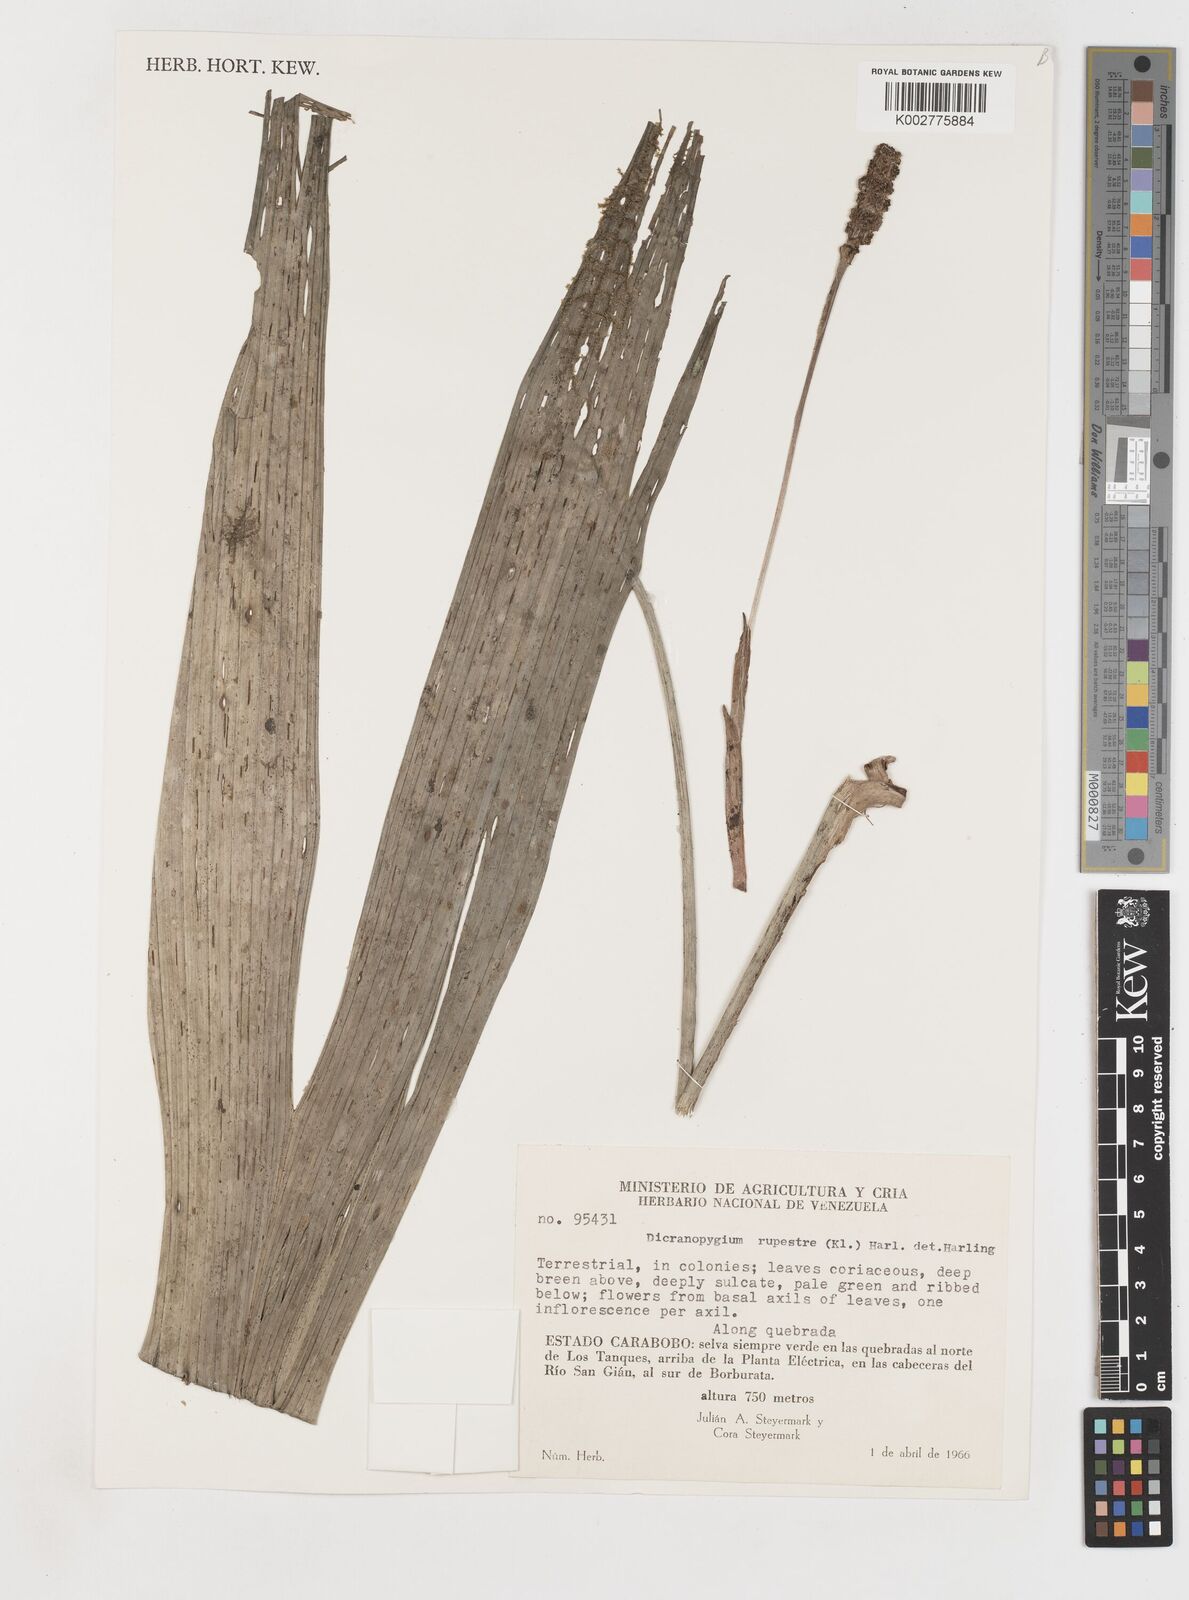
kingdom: Plantae
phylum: Tracheophyta
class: Liliopsida
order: Pandanales
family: Cyclanthaceae
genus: Dicranopygium
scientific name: Dicranopygium rupestre
